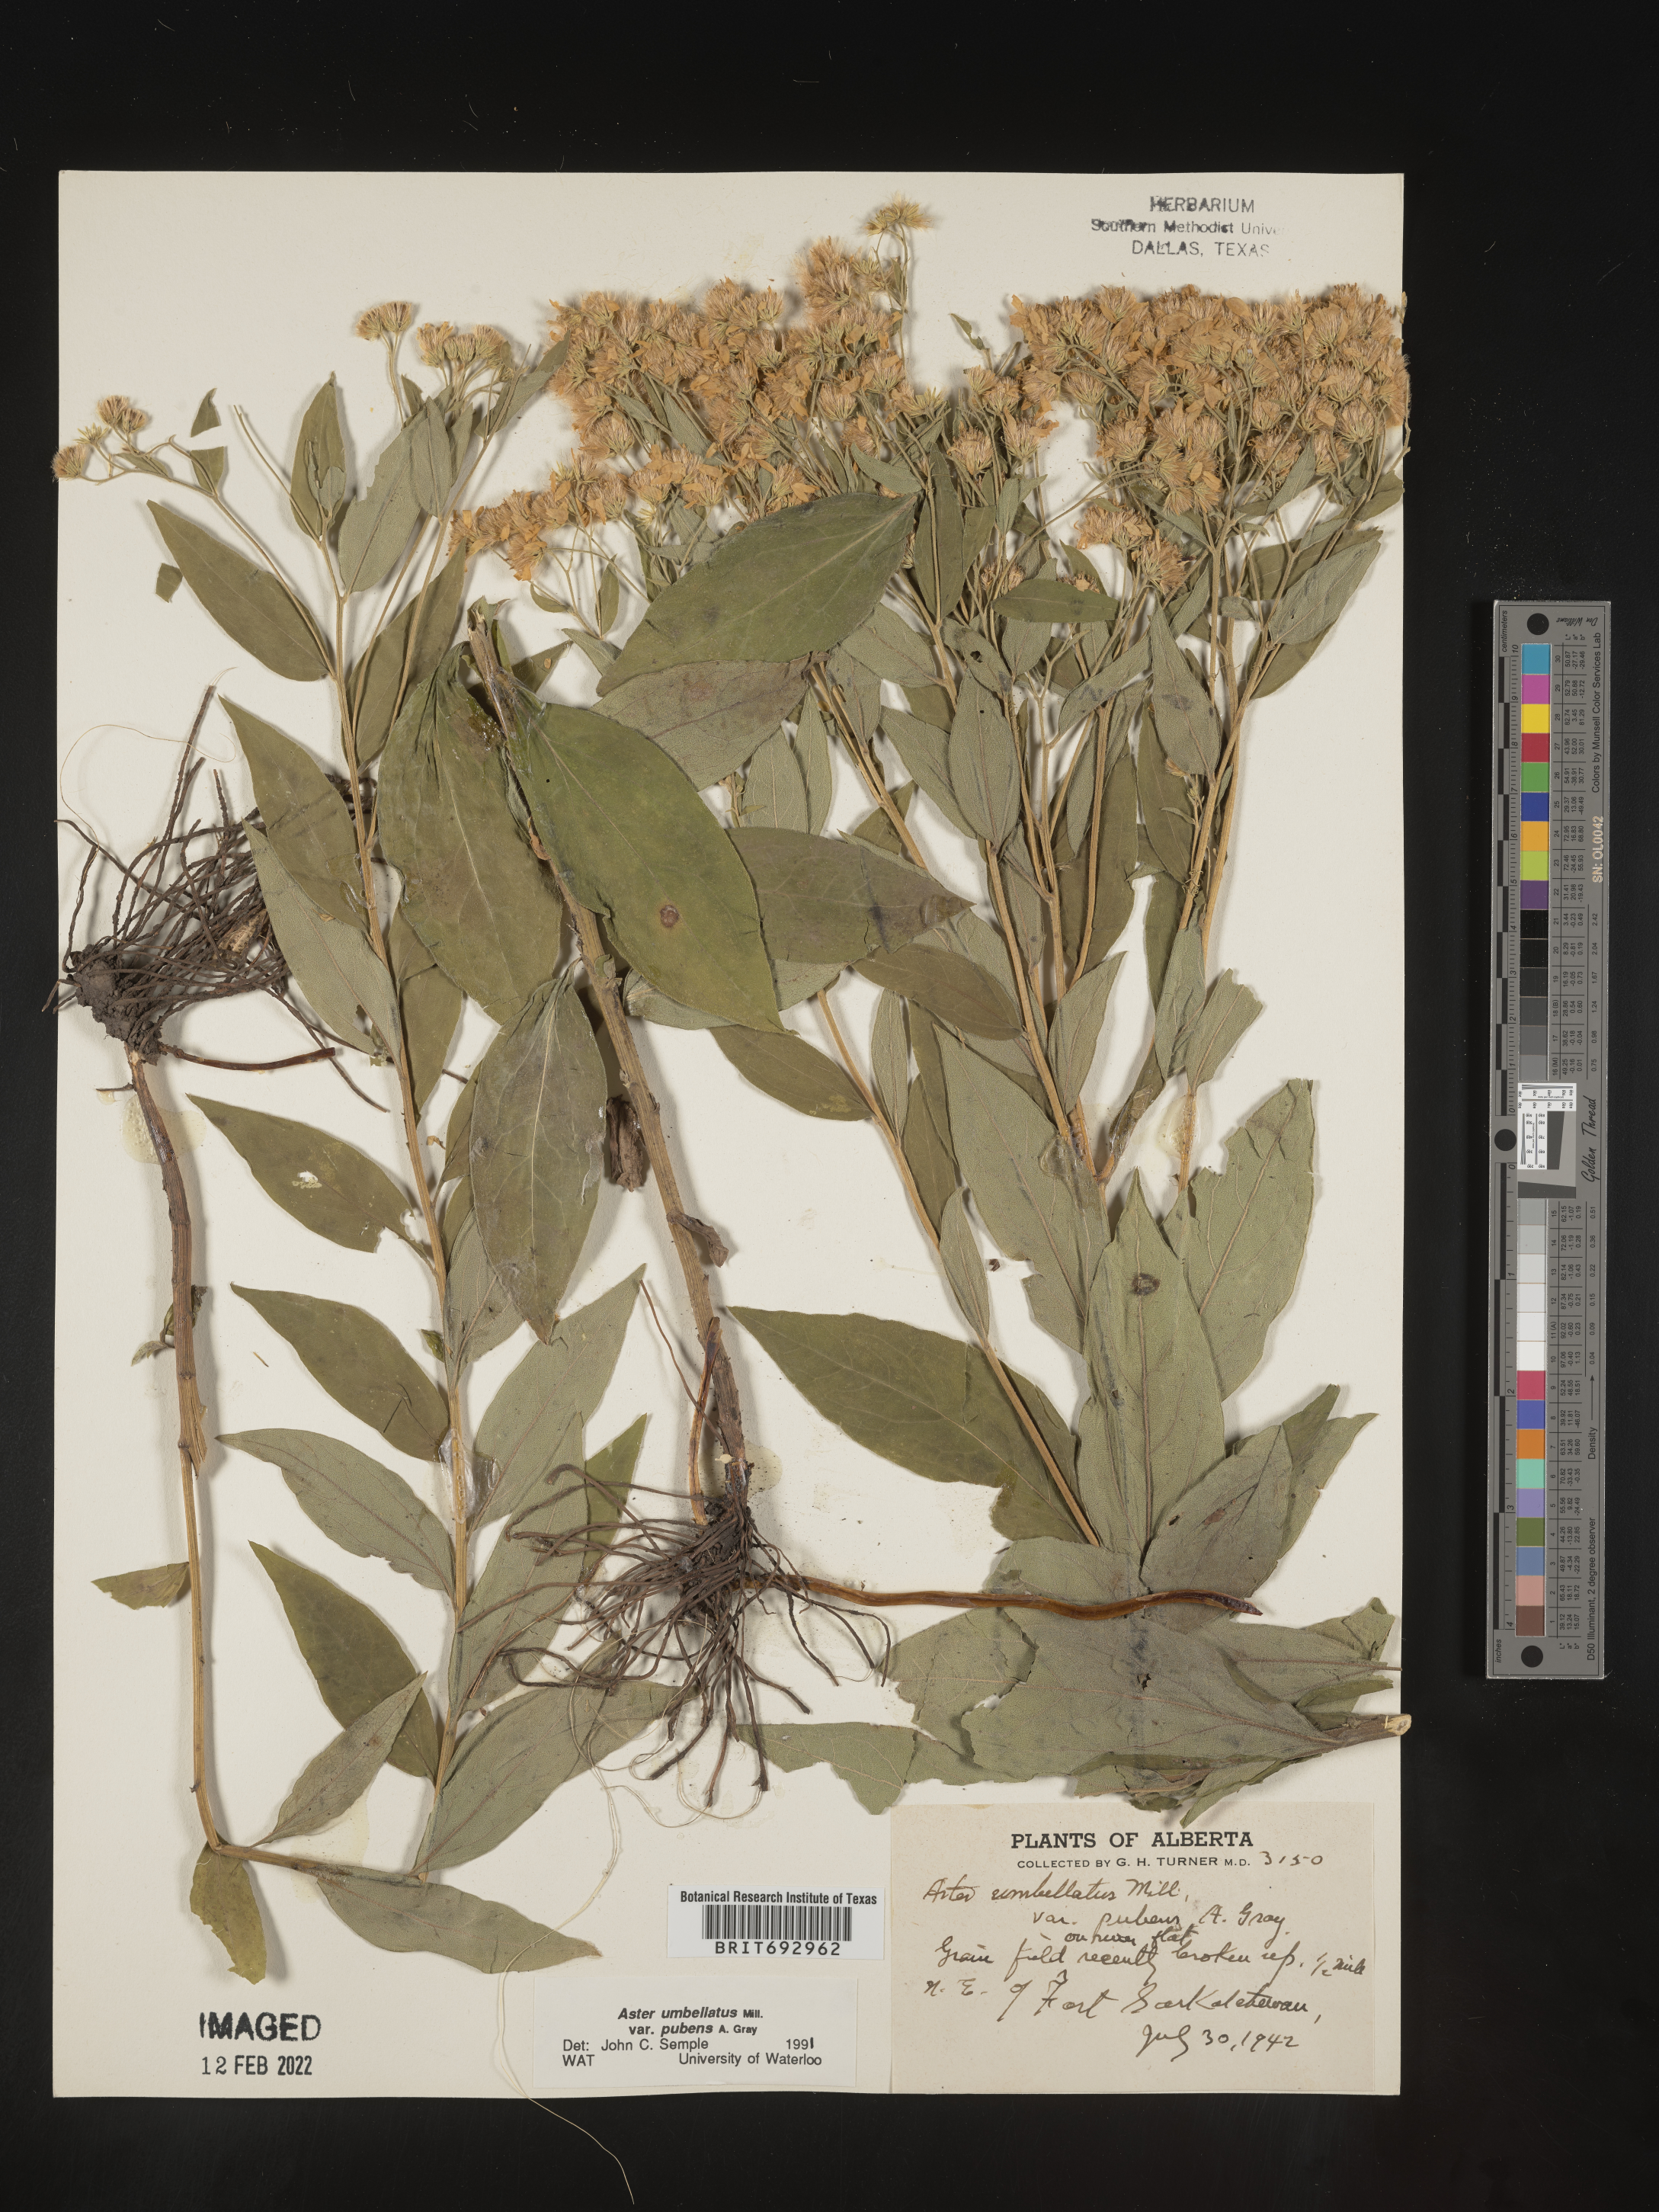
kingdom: Plantae
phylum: Tracheophyta
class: Magnoliopsida
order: Asterales
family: Asteraceae
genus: Doellingeria
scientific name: Doellingeria umbellata
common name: Flat-top white aster
